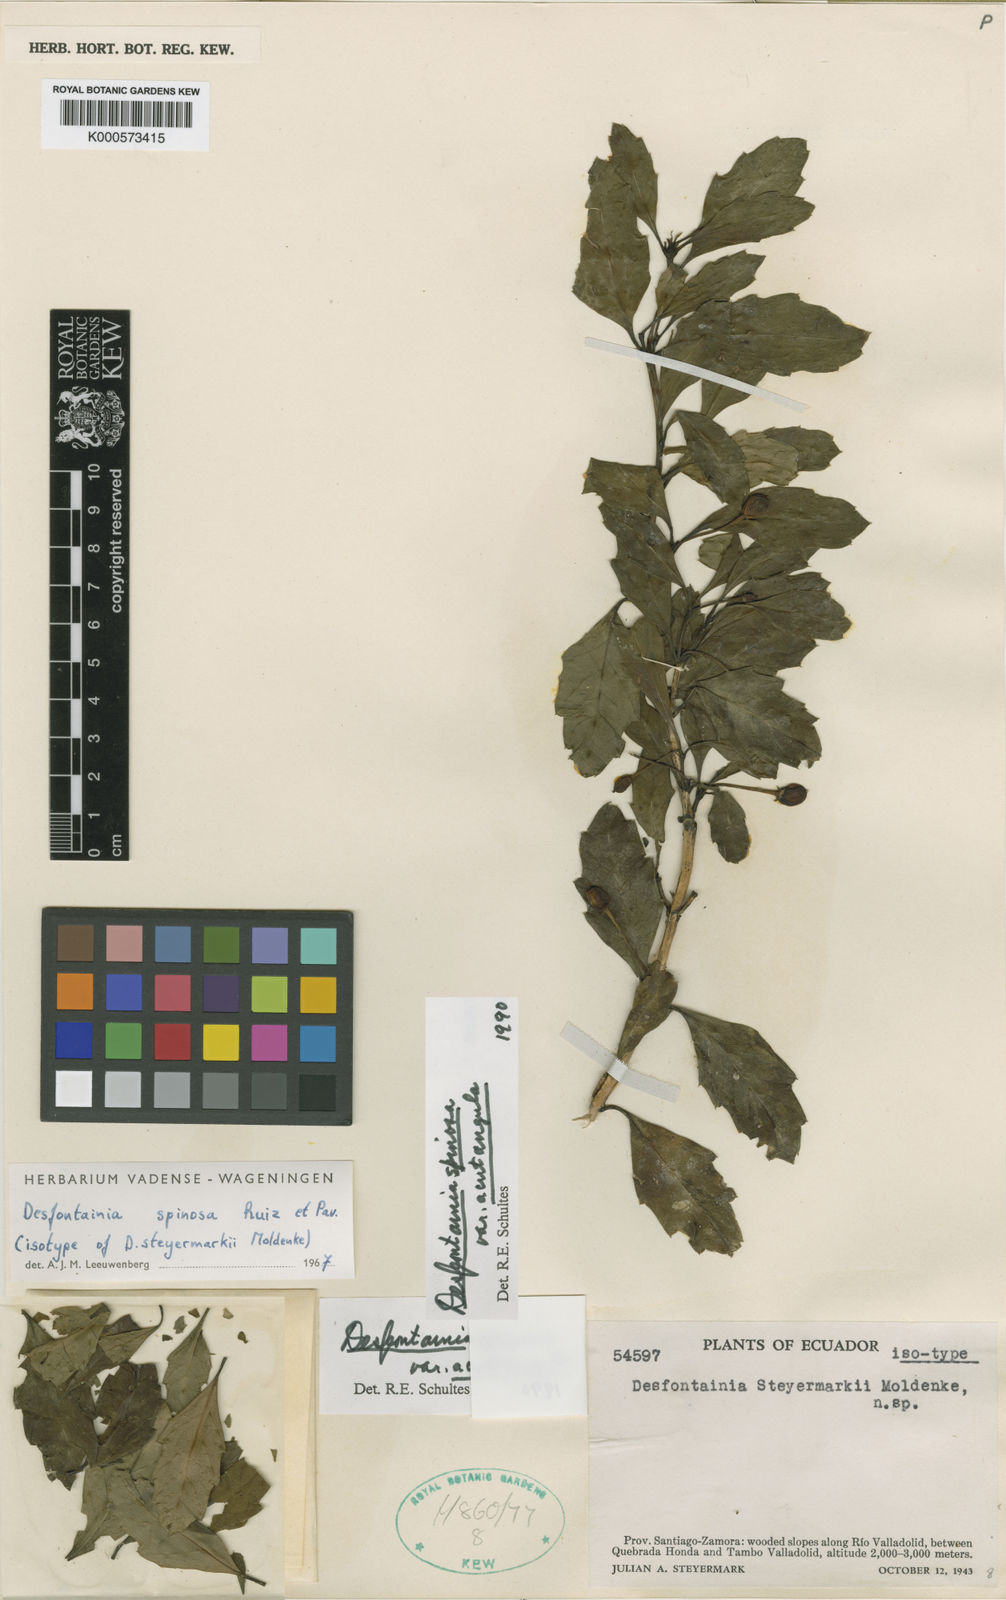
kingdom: Plantae
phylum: Tracheophyta
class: Magnoliopsida
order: Bruniales
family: Columelliaceae
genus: Desfontainia
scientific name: Desfontainia splendens
